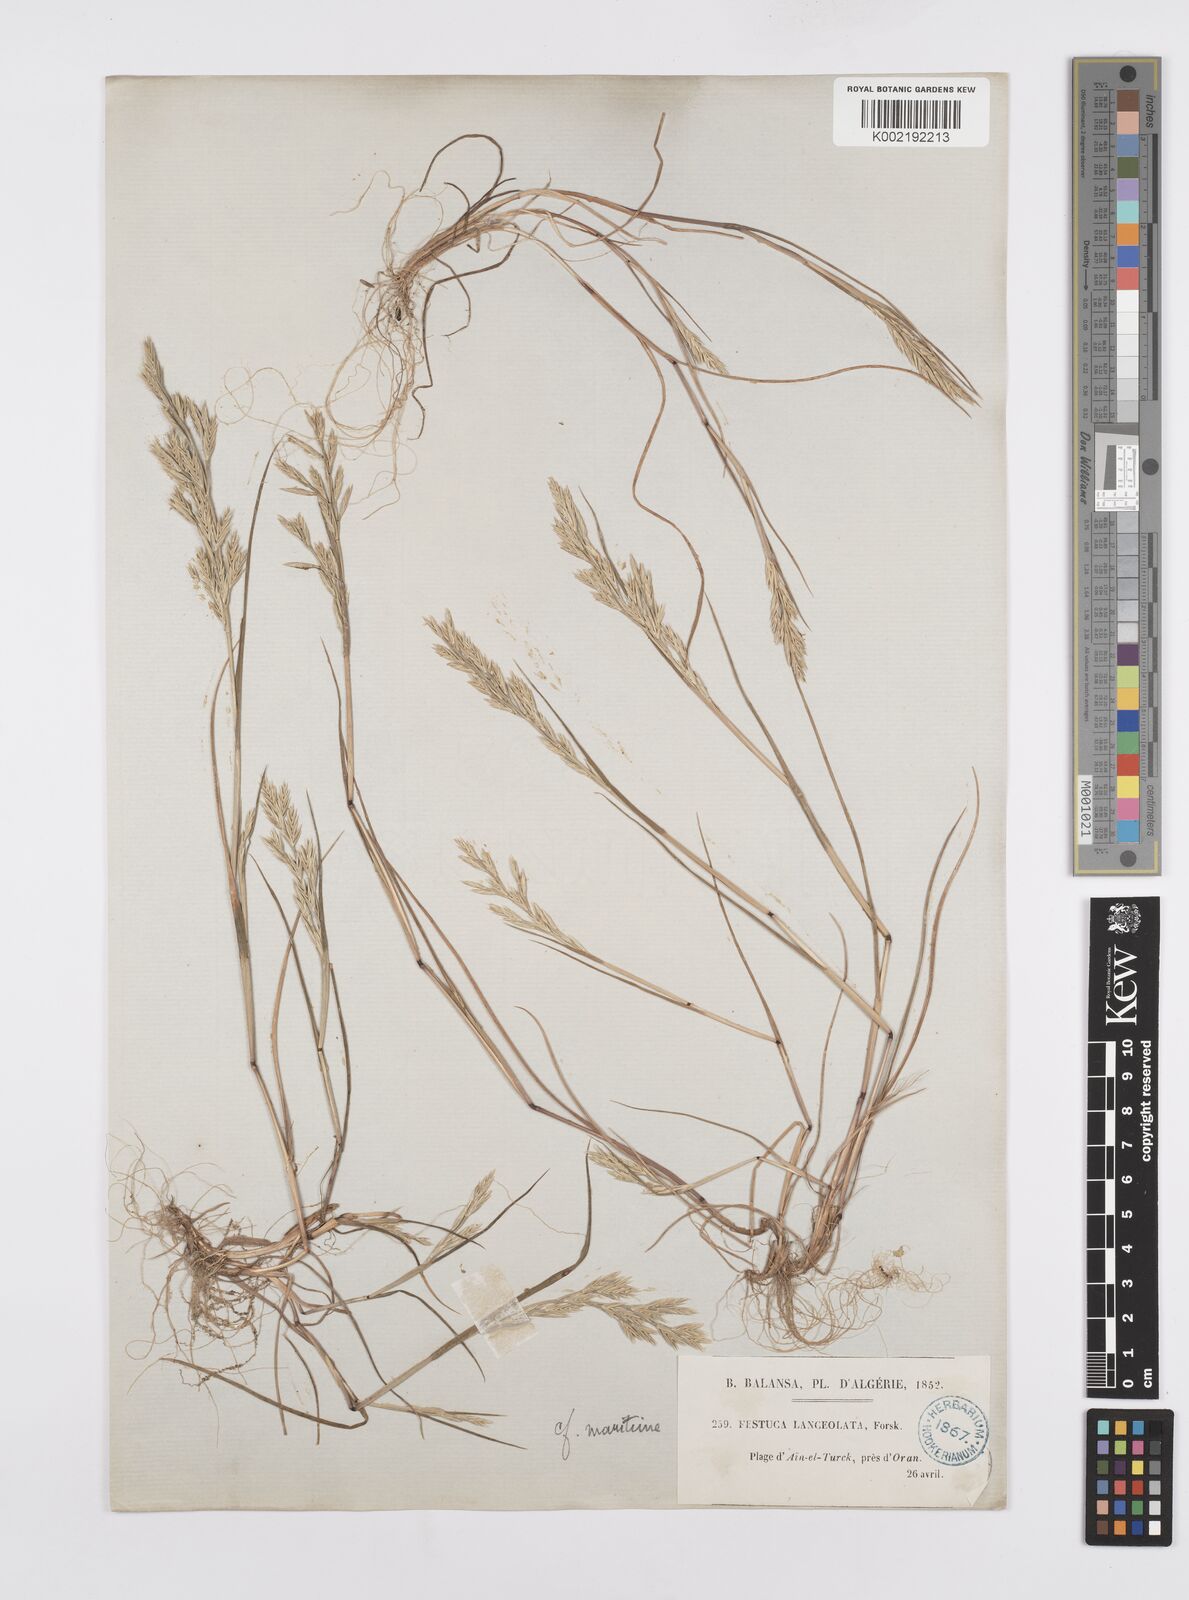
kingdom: Plantae
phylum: Tracheophyta
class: Liliopsida
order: Poales
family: Poaceae
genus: Cutandia
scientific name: Cutandia maritima
